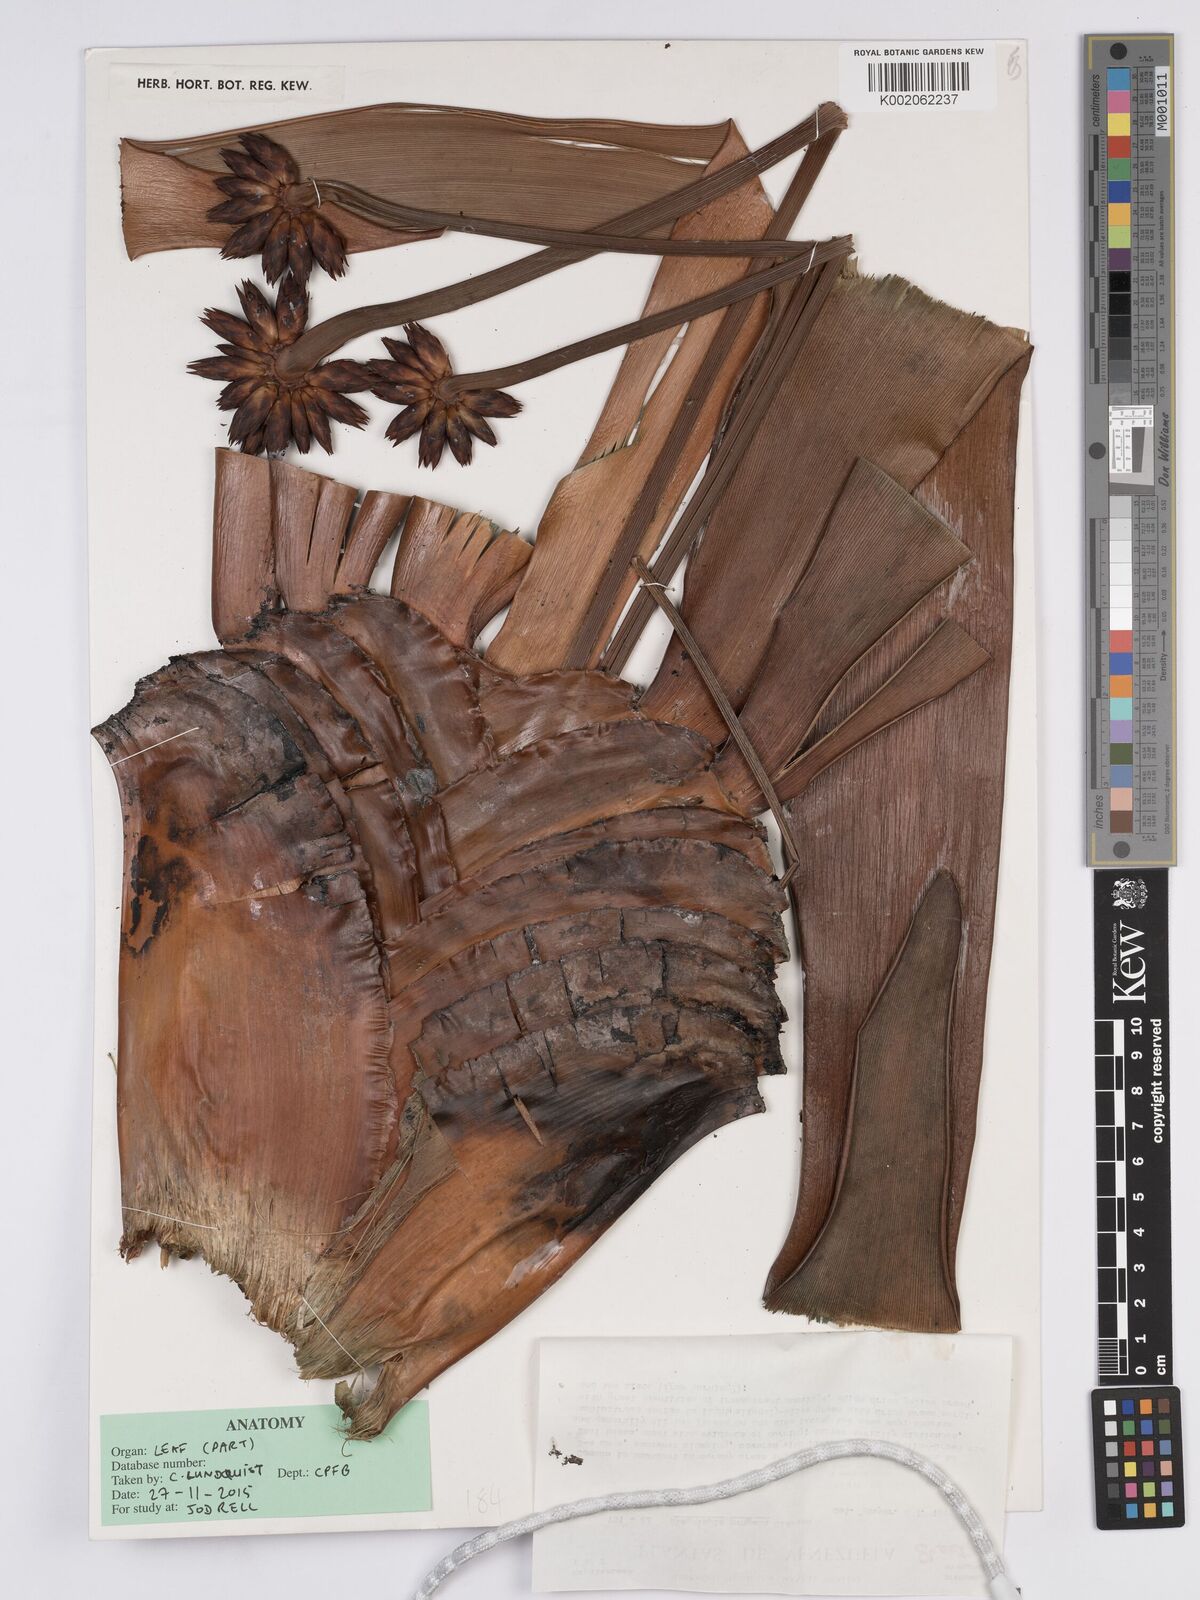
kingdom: Plantae
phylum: Tracheophyta
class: Liliopsida
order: Poales
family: Rapateaceae
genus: Stegolepis
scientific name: Stegolepis pungens
